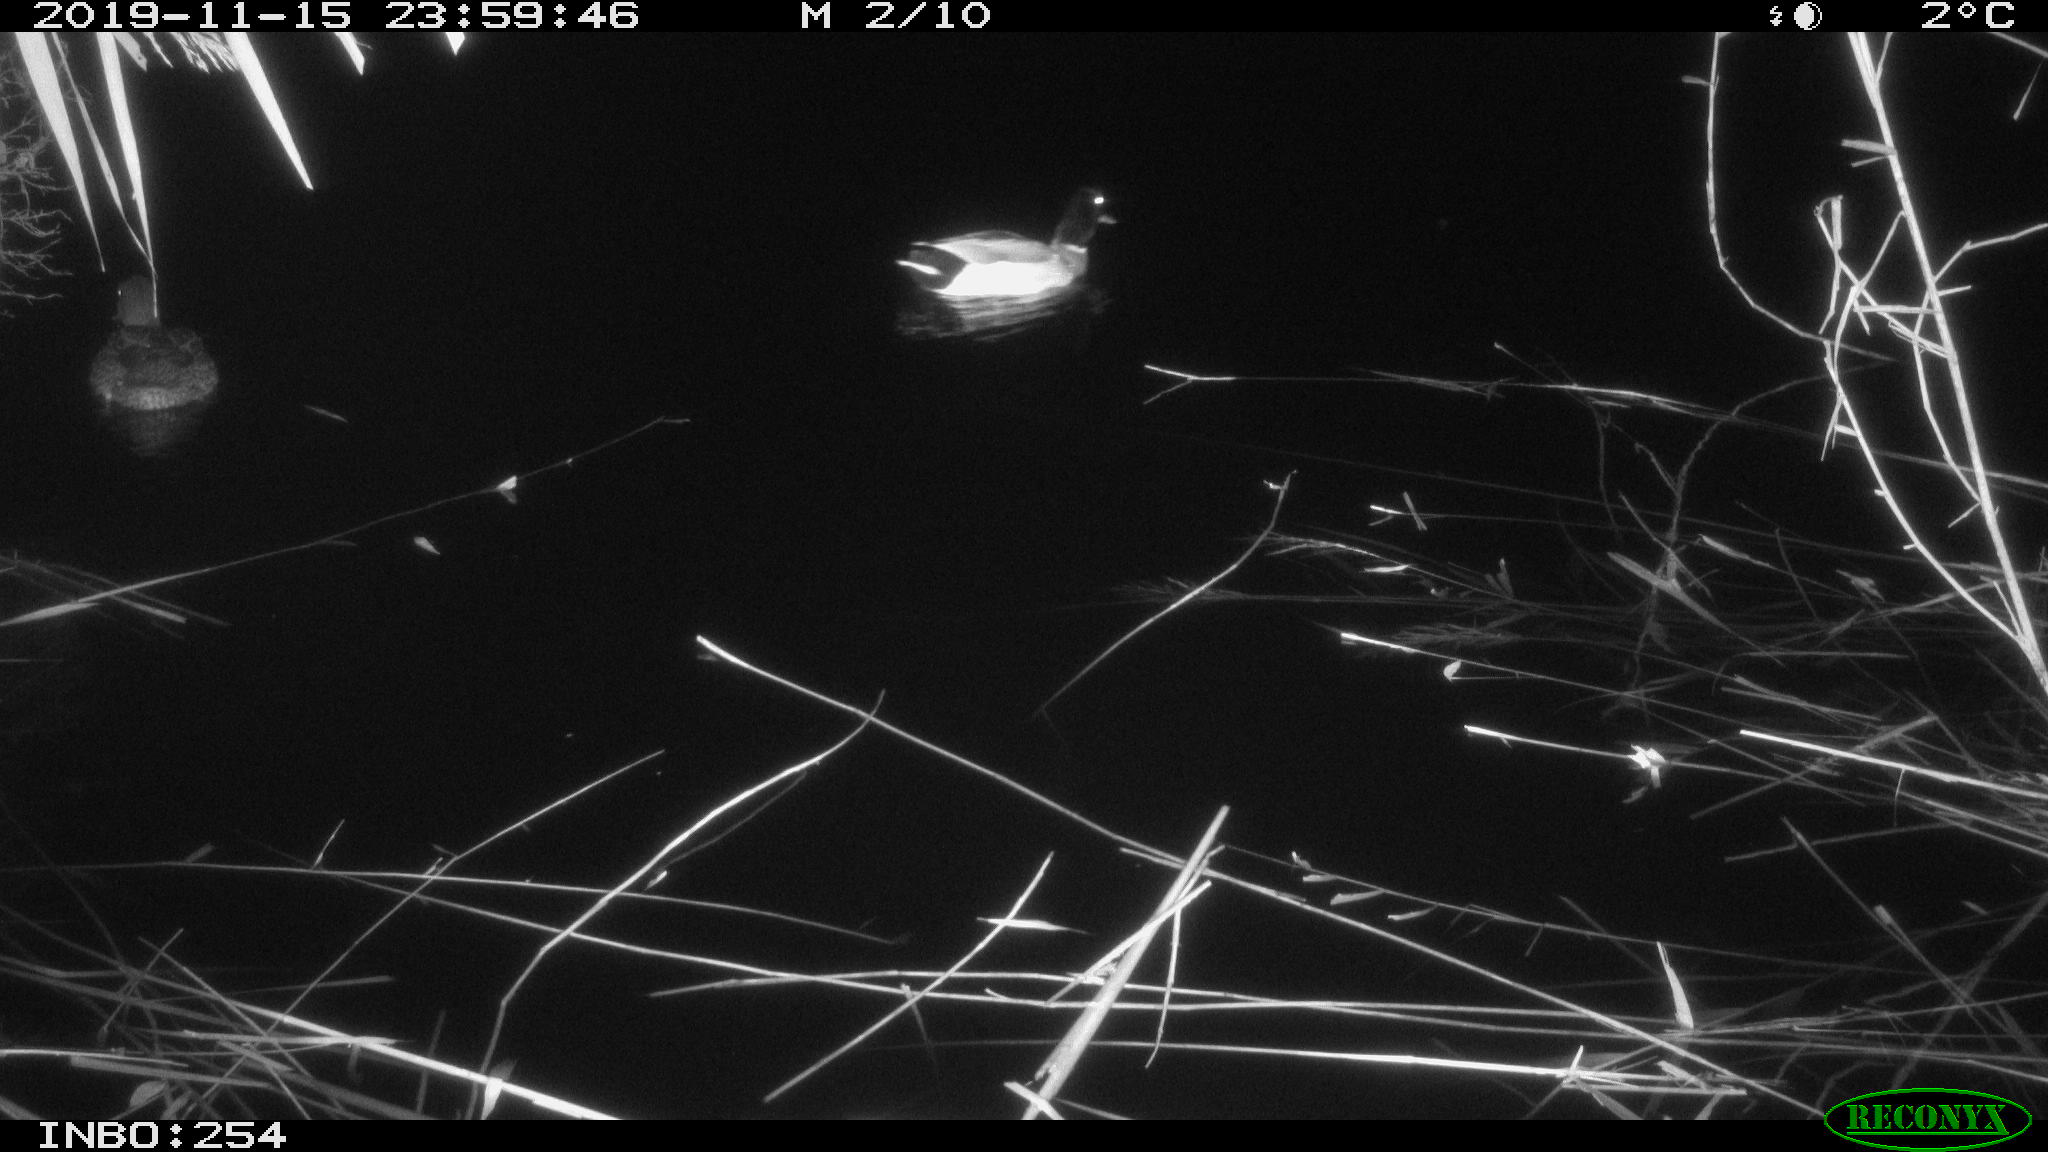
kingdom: Animalia
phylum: Chordata
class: Aves
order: Anseriformes
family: Anatidae
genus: Anas
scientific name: Anas platyrhynchos
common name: Mallard
